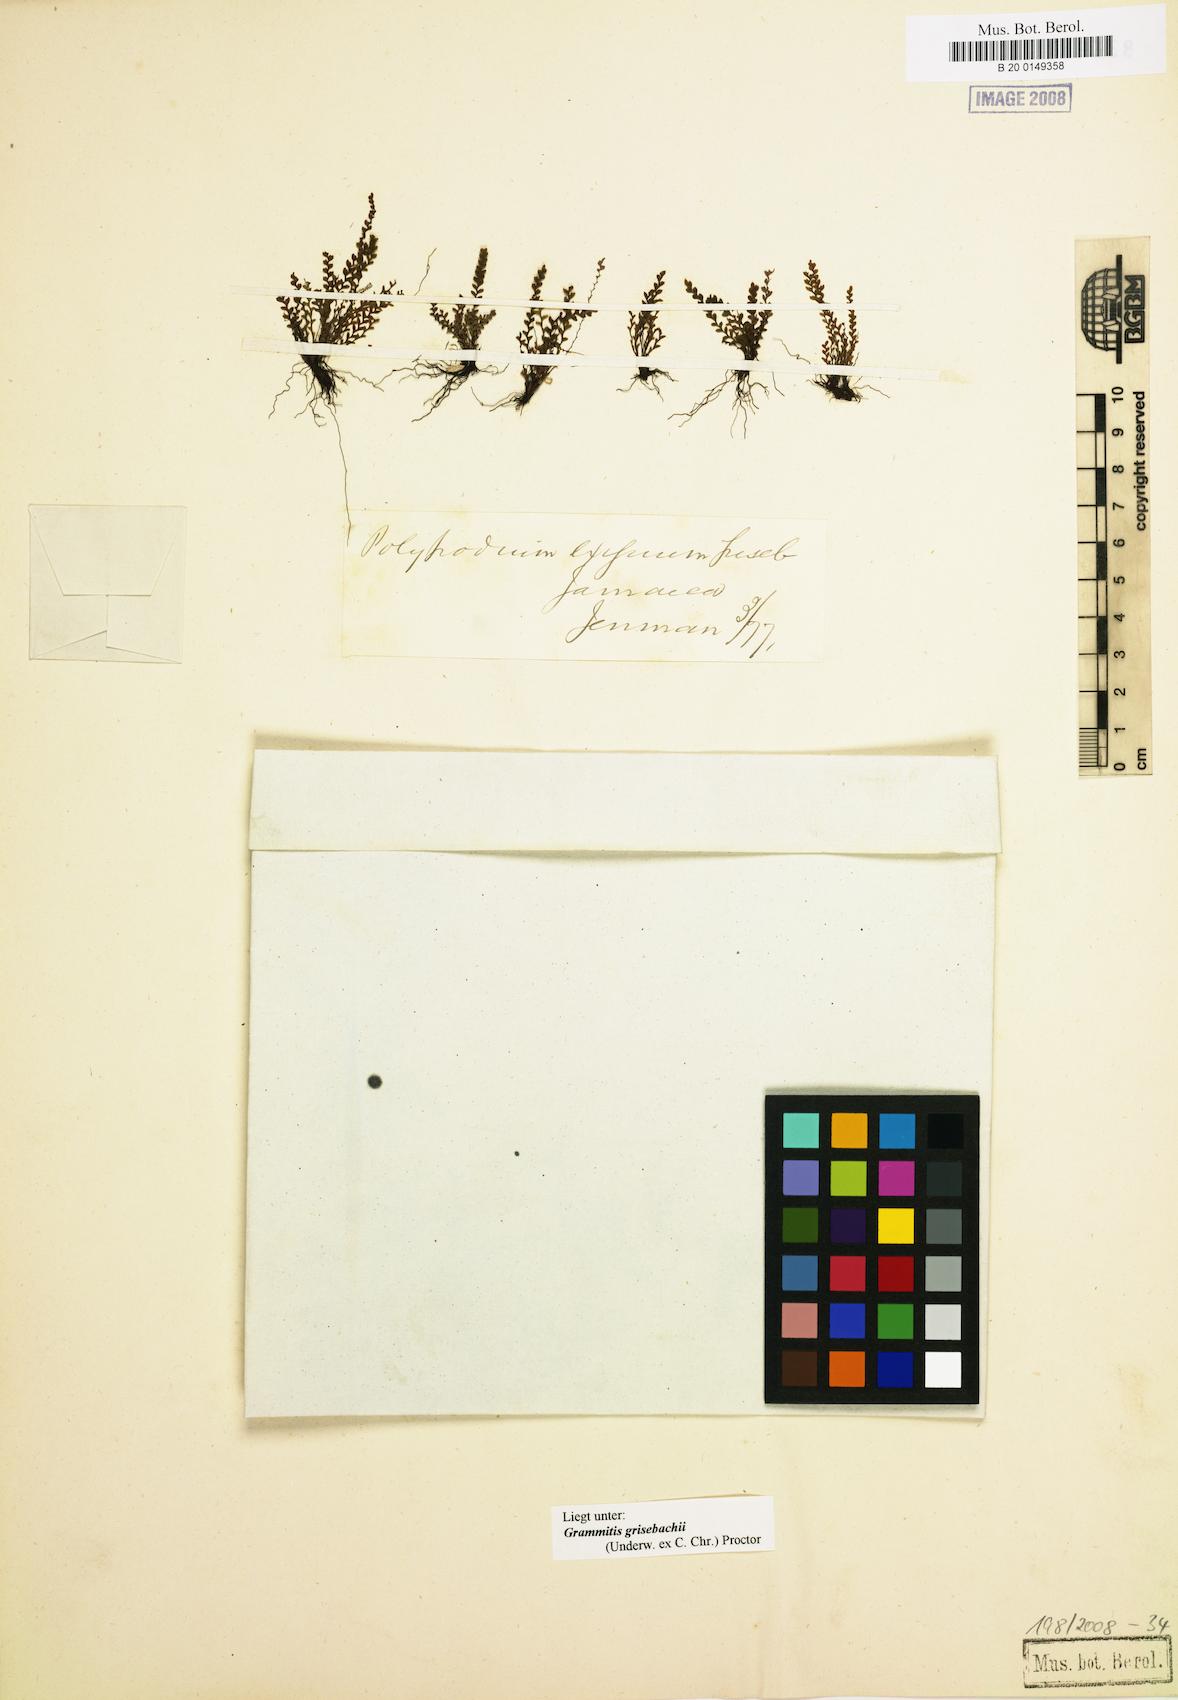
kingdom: Plantae
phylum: Tracheophyta
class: Polypodiopsida
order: Polypodiales
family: Polypodiaceae
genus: Moranopteris
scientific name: Moranopteris grisebachii
